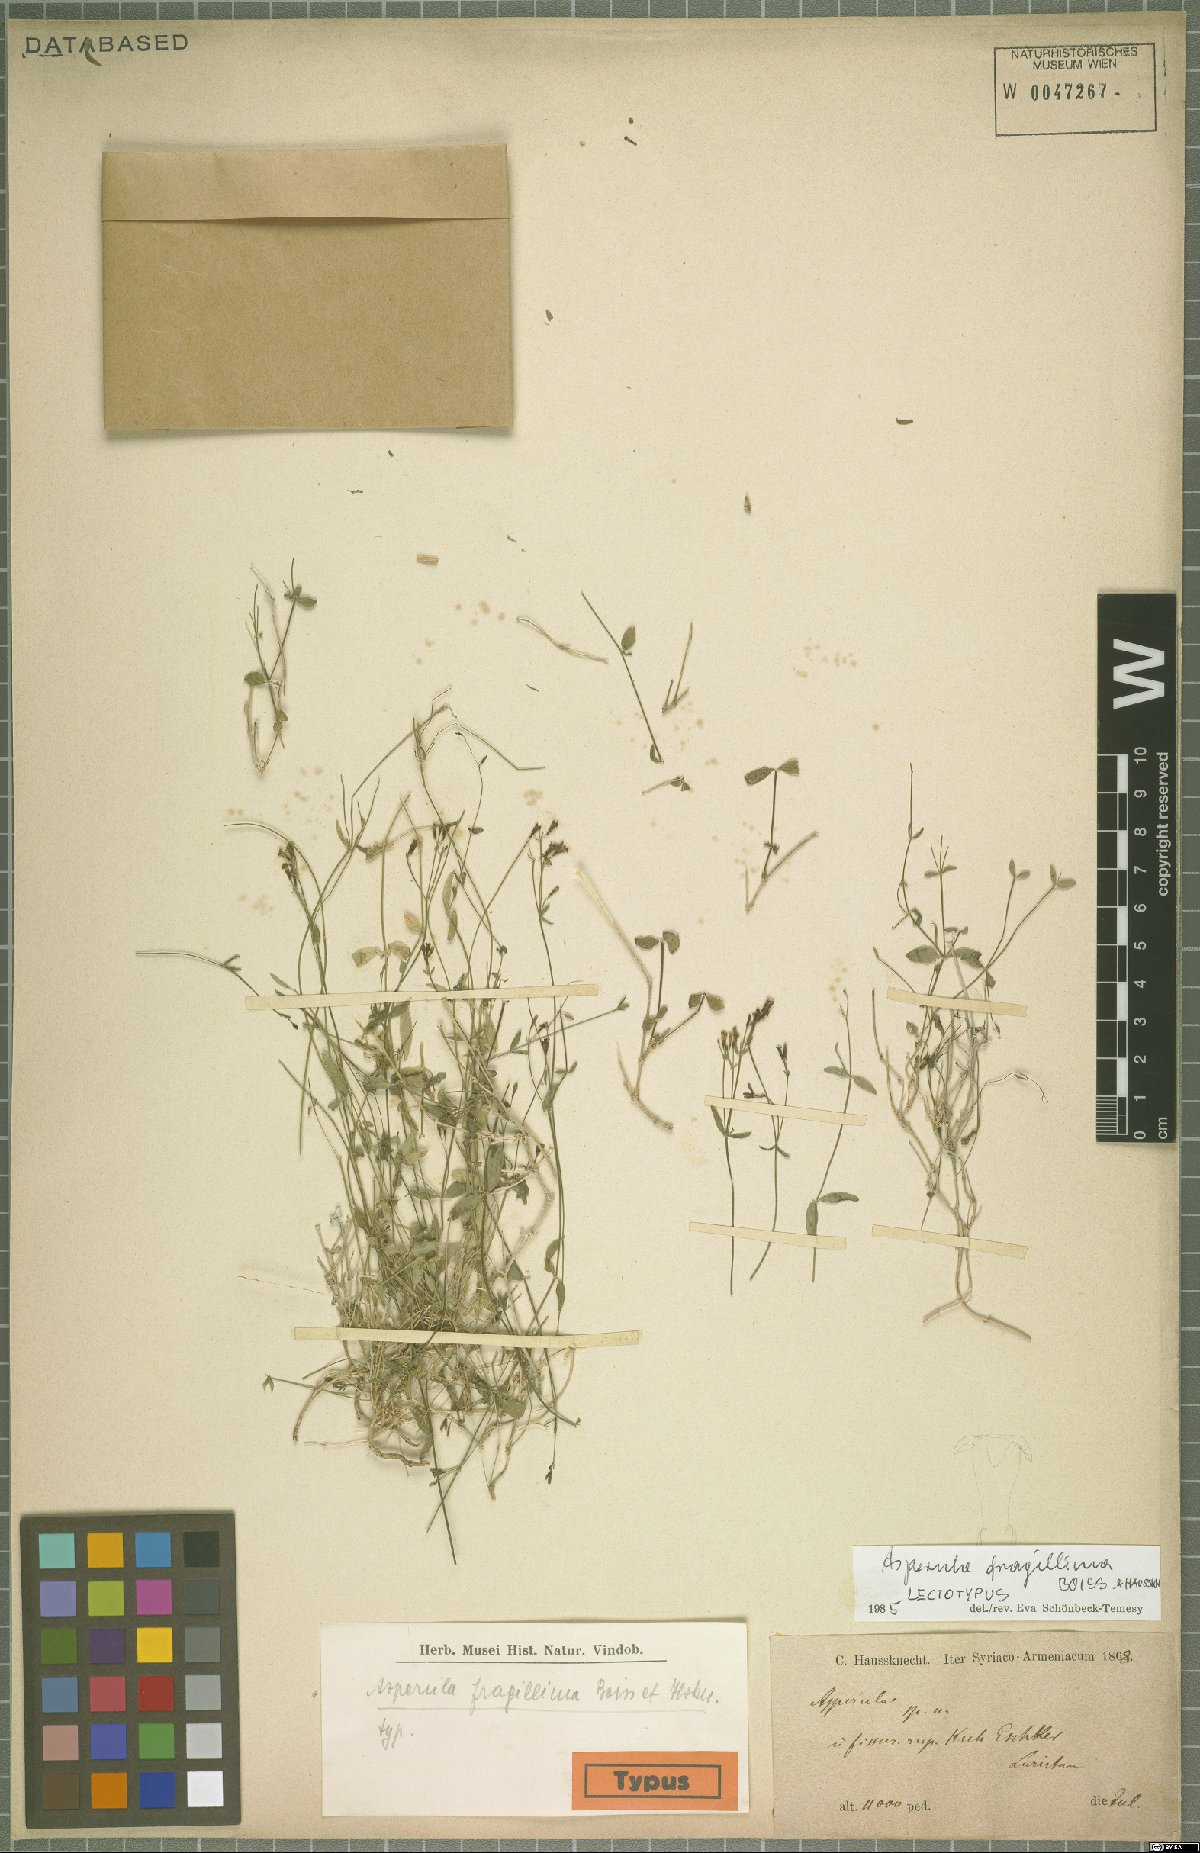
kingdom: Plantae
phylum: Tracheophyta
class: Magnoliopsida
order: Gentianales
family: Rubiaceae
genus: Asperula
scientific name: Asperula fragillima
